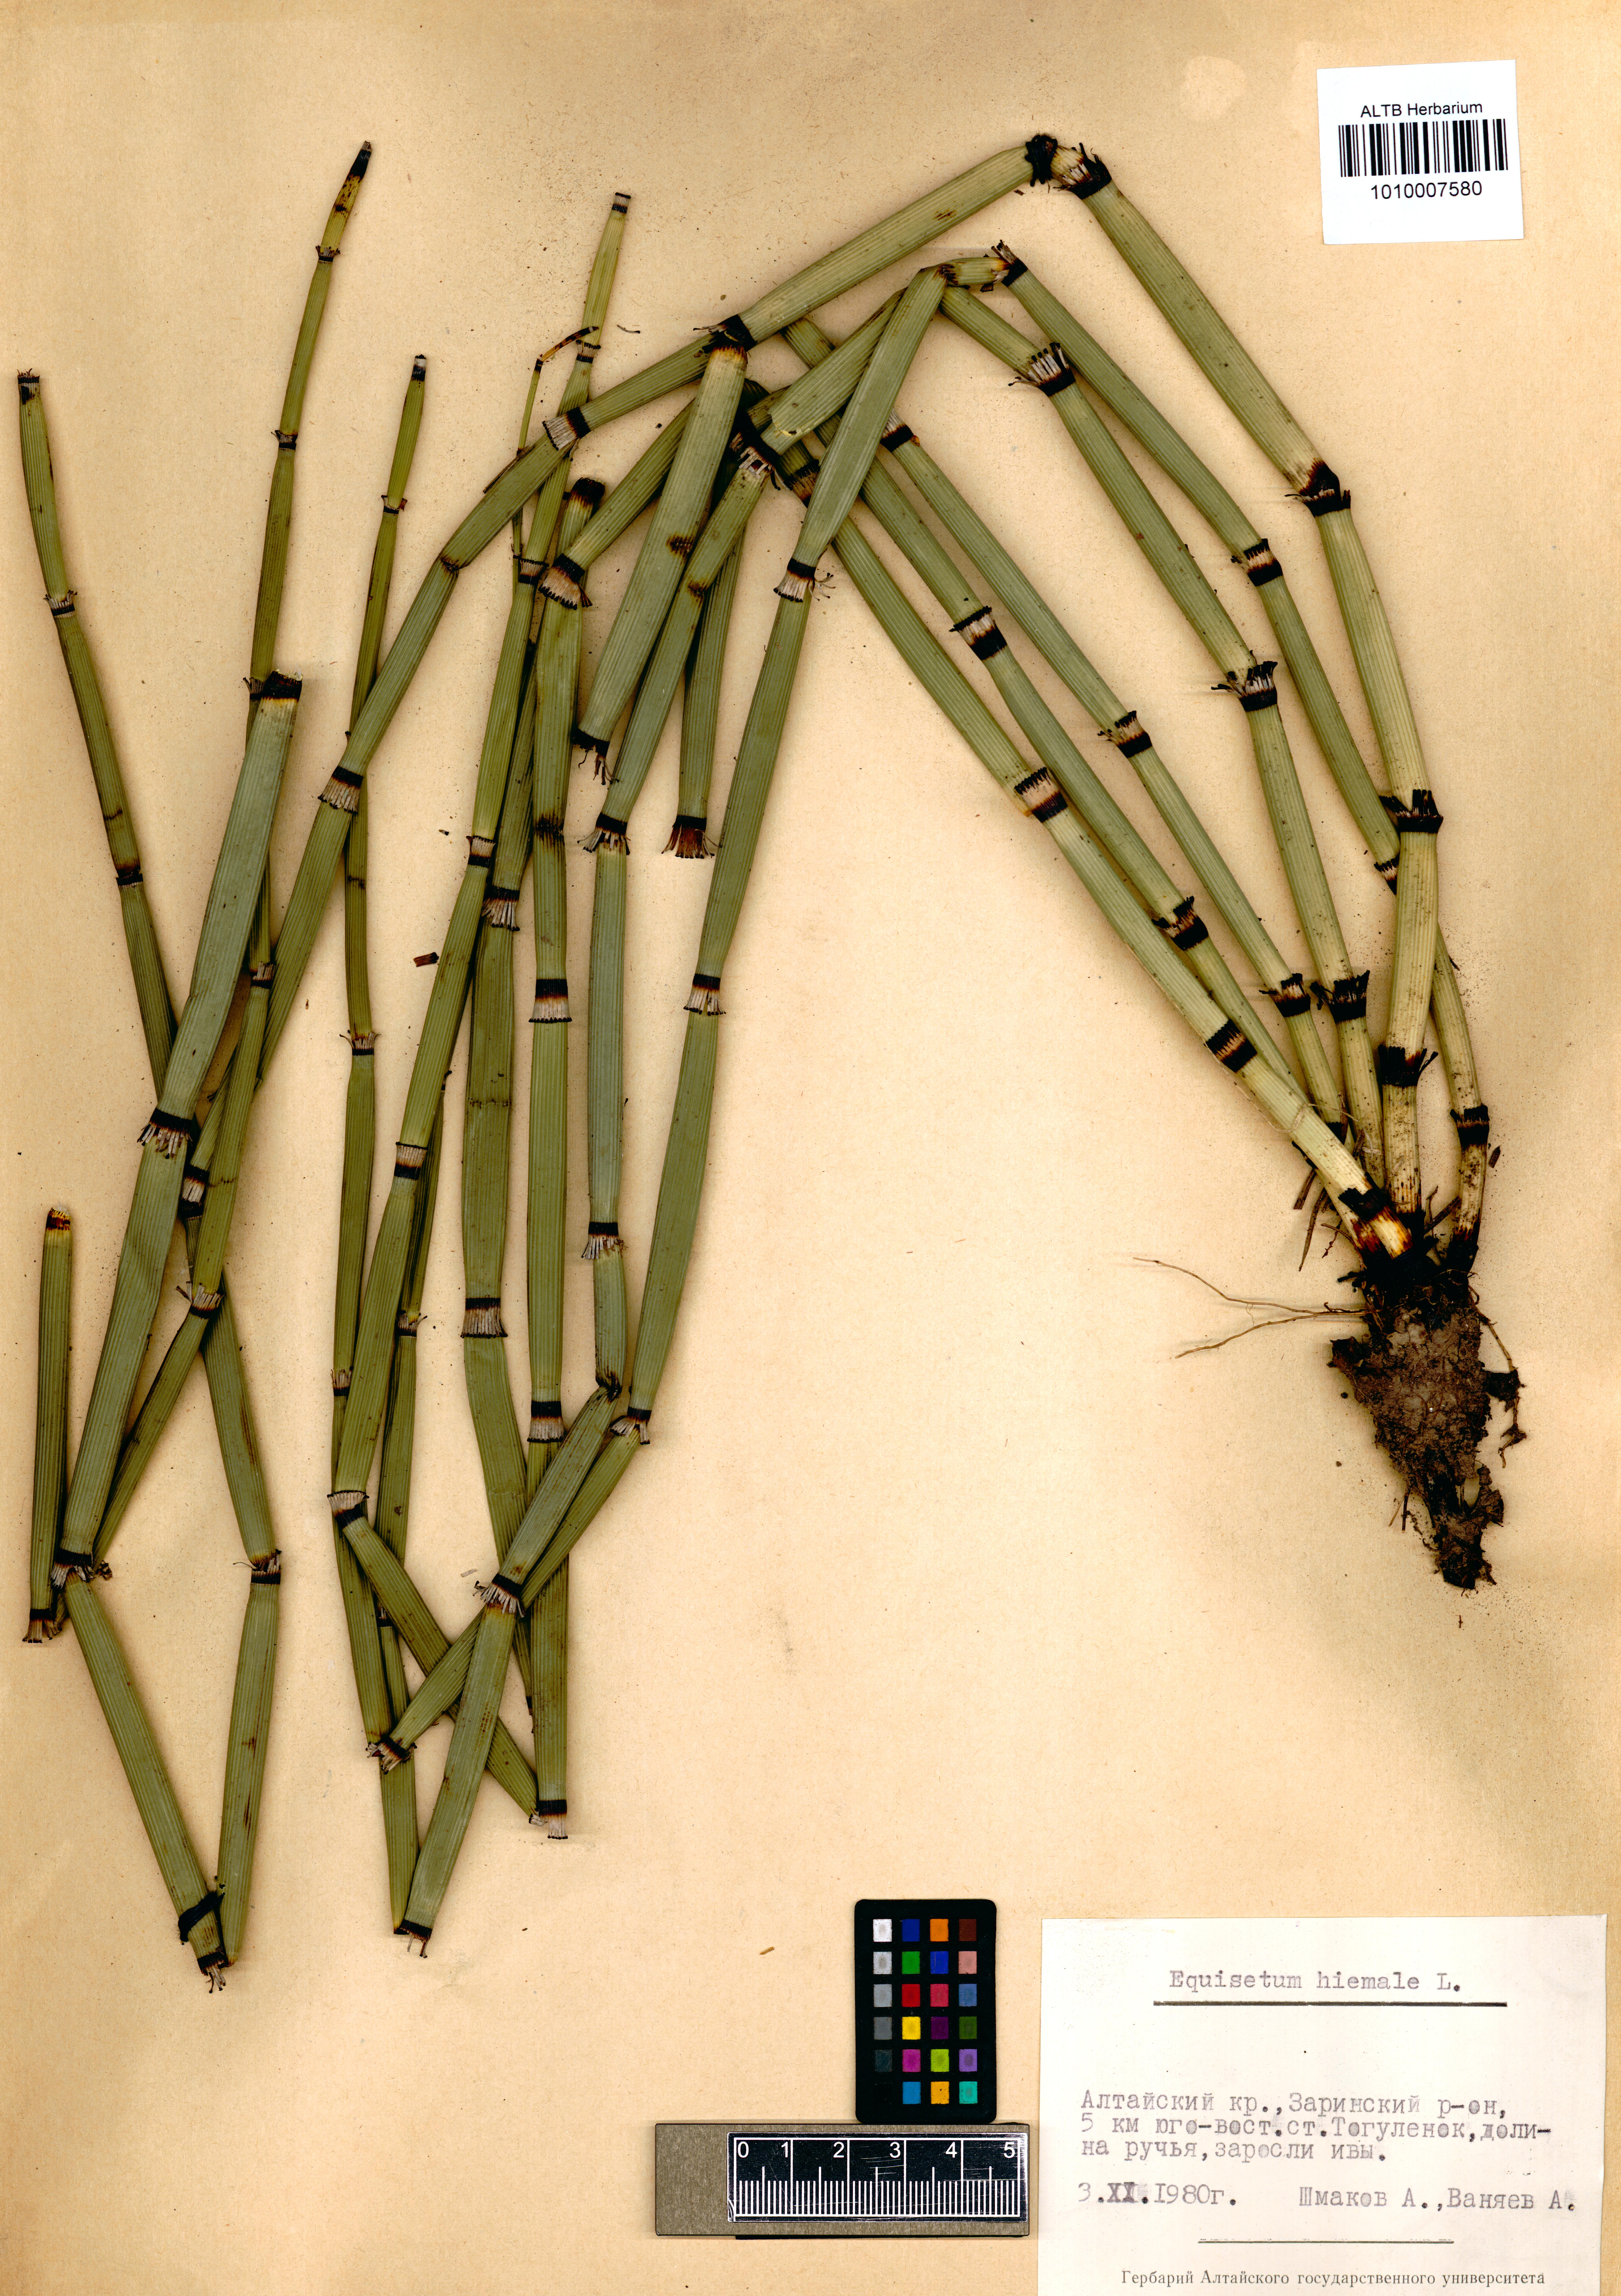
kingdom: Plantae
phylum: Tracheophyta
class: Polypodiopsida
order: Equisetales
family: Equisetaceae
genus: Equisetum
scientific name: Equisetum hyemale
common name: Rough horsetail
